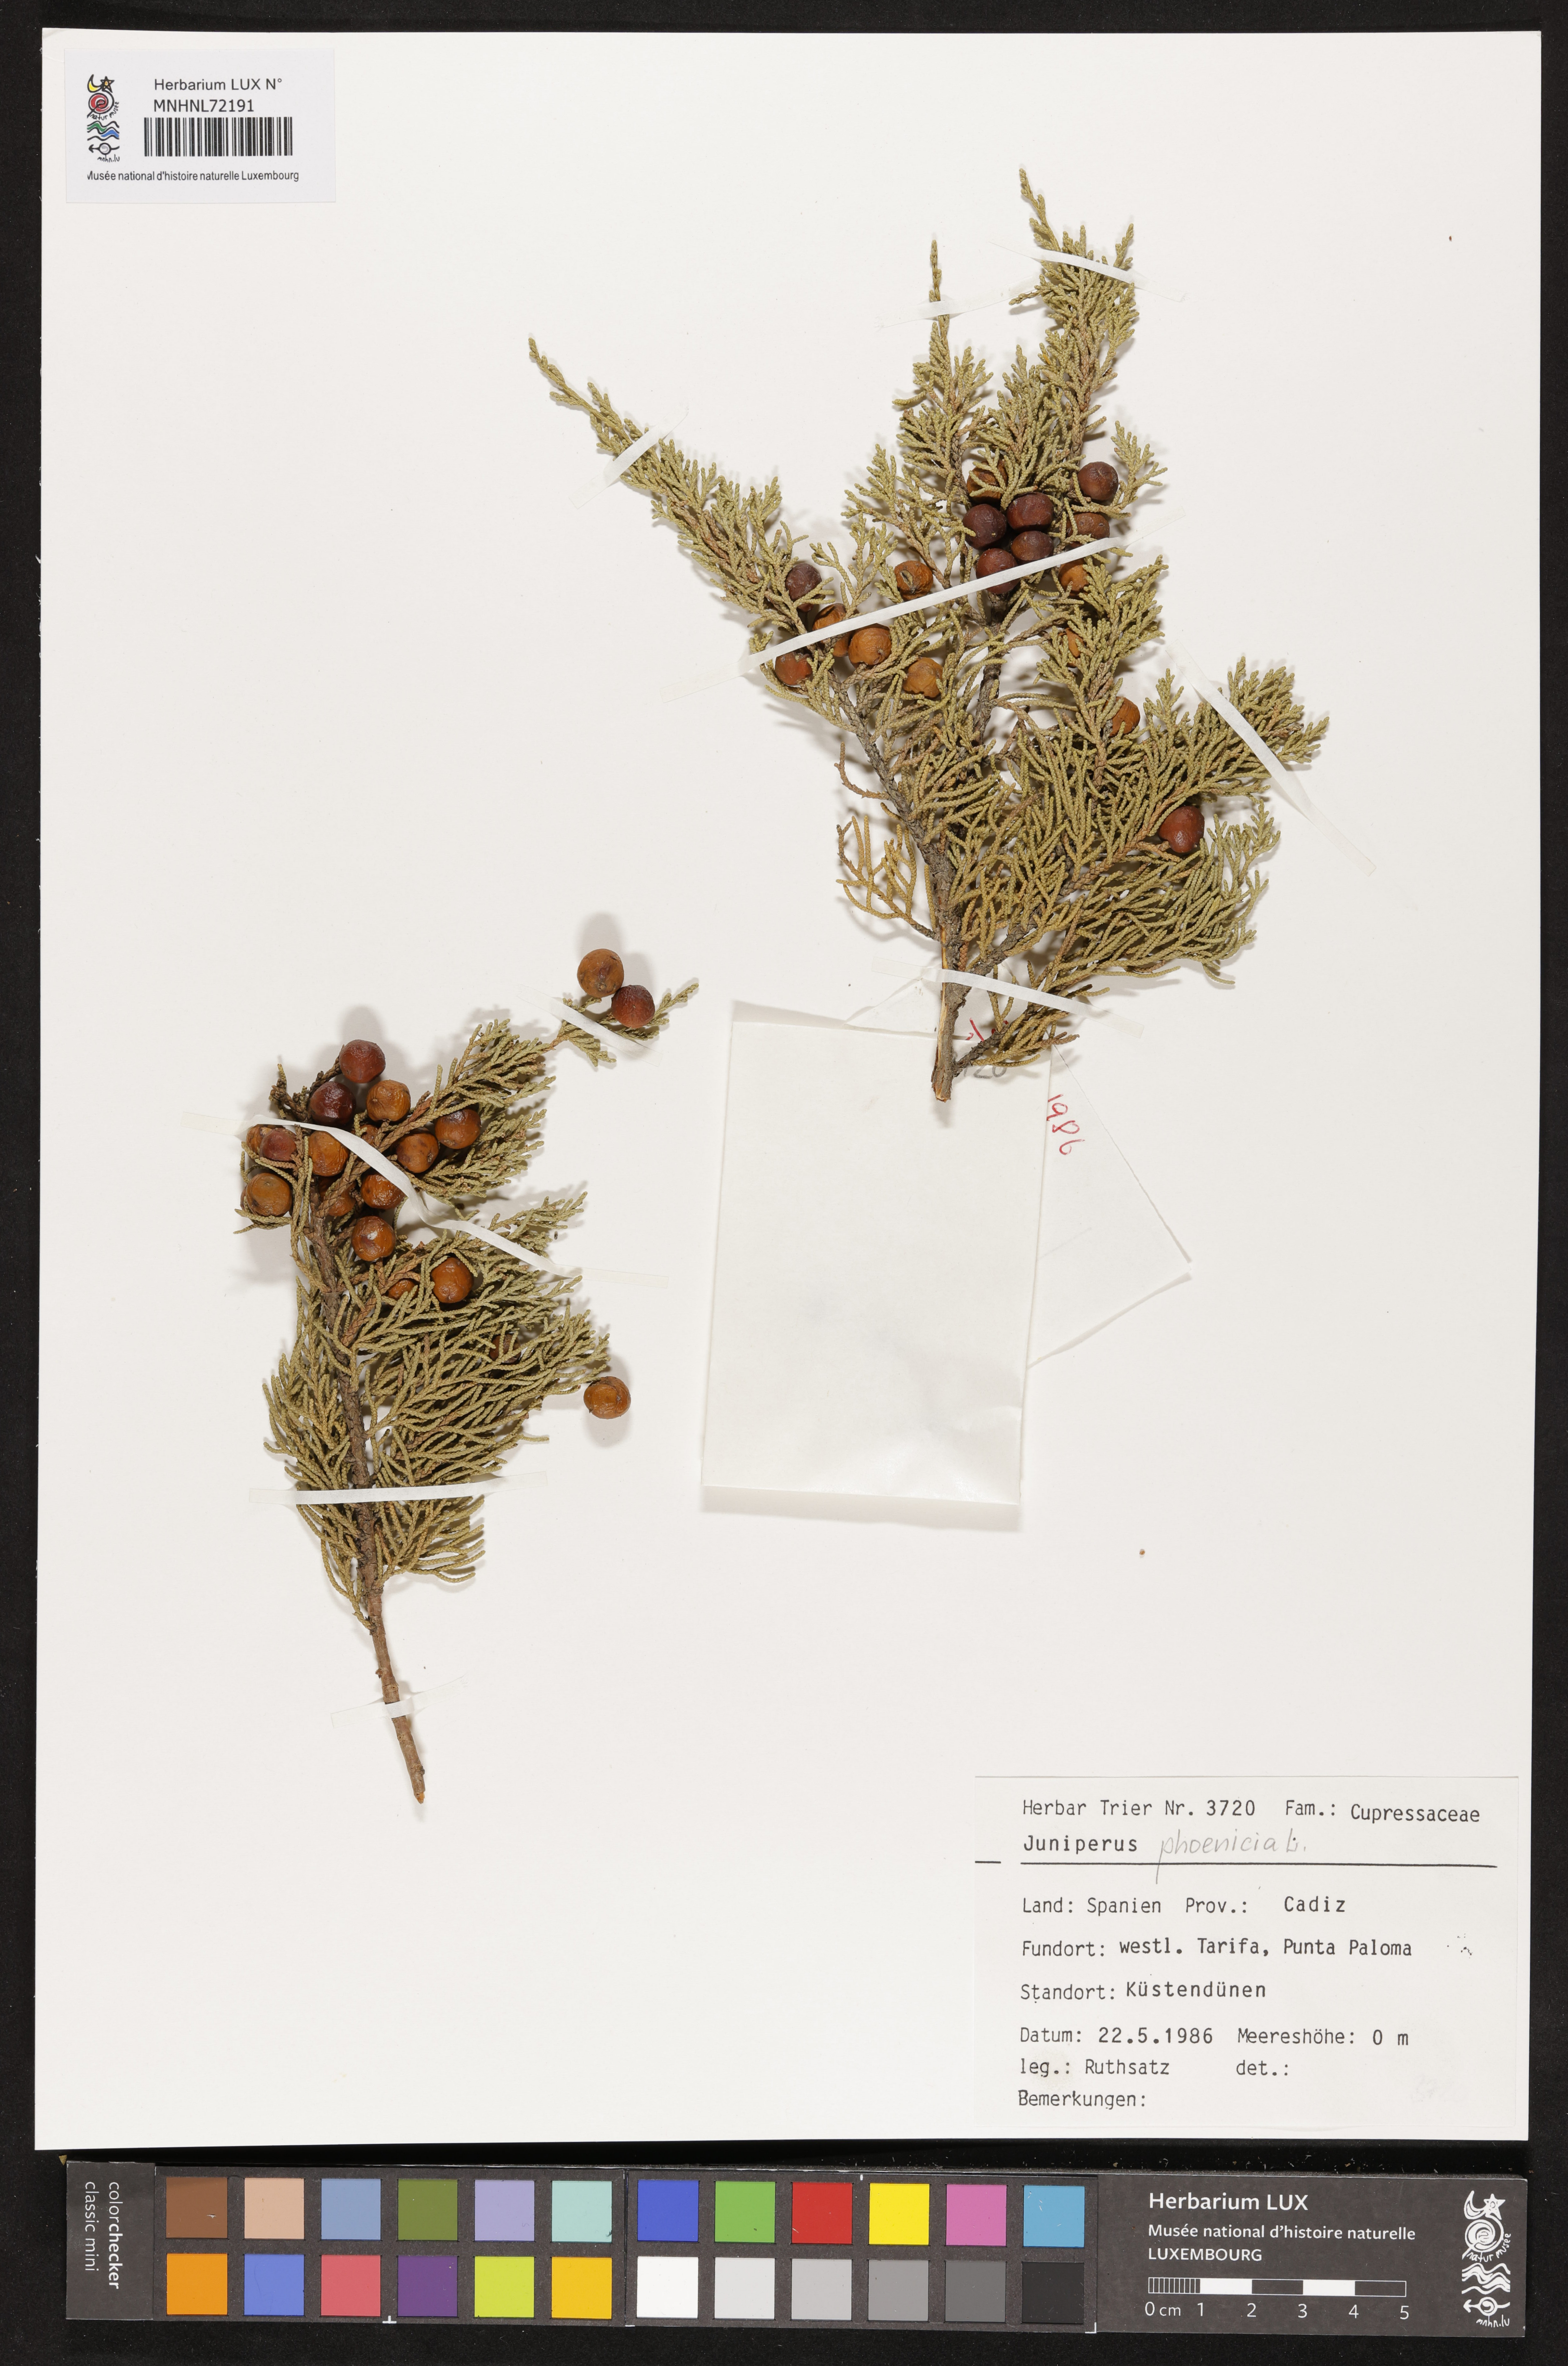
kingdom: Plantae
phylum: Tracheophyta
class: Pinopsida
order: Pinales
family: Cupressaceae
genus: Juniperus
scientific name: Juniperus phoenicea
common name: Phoenician juniper
